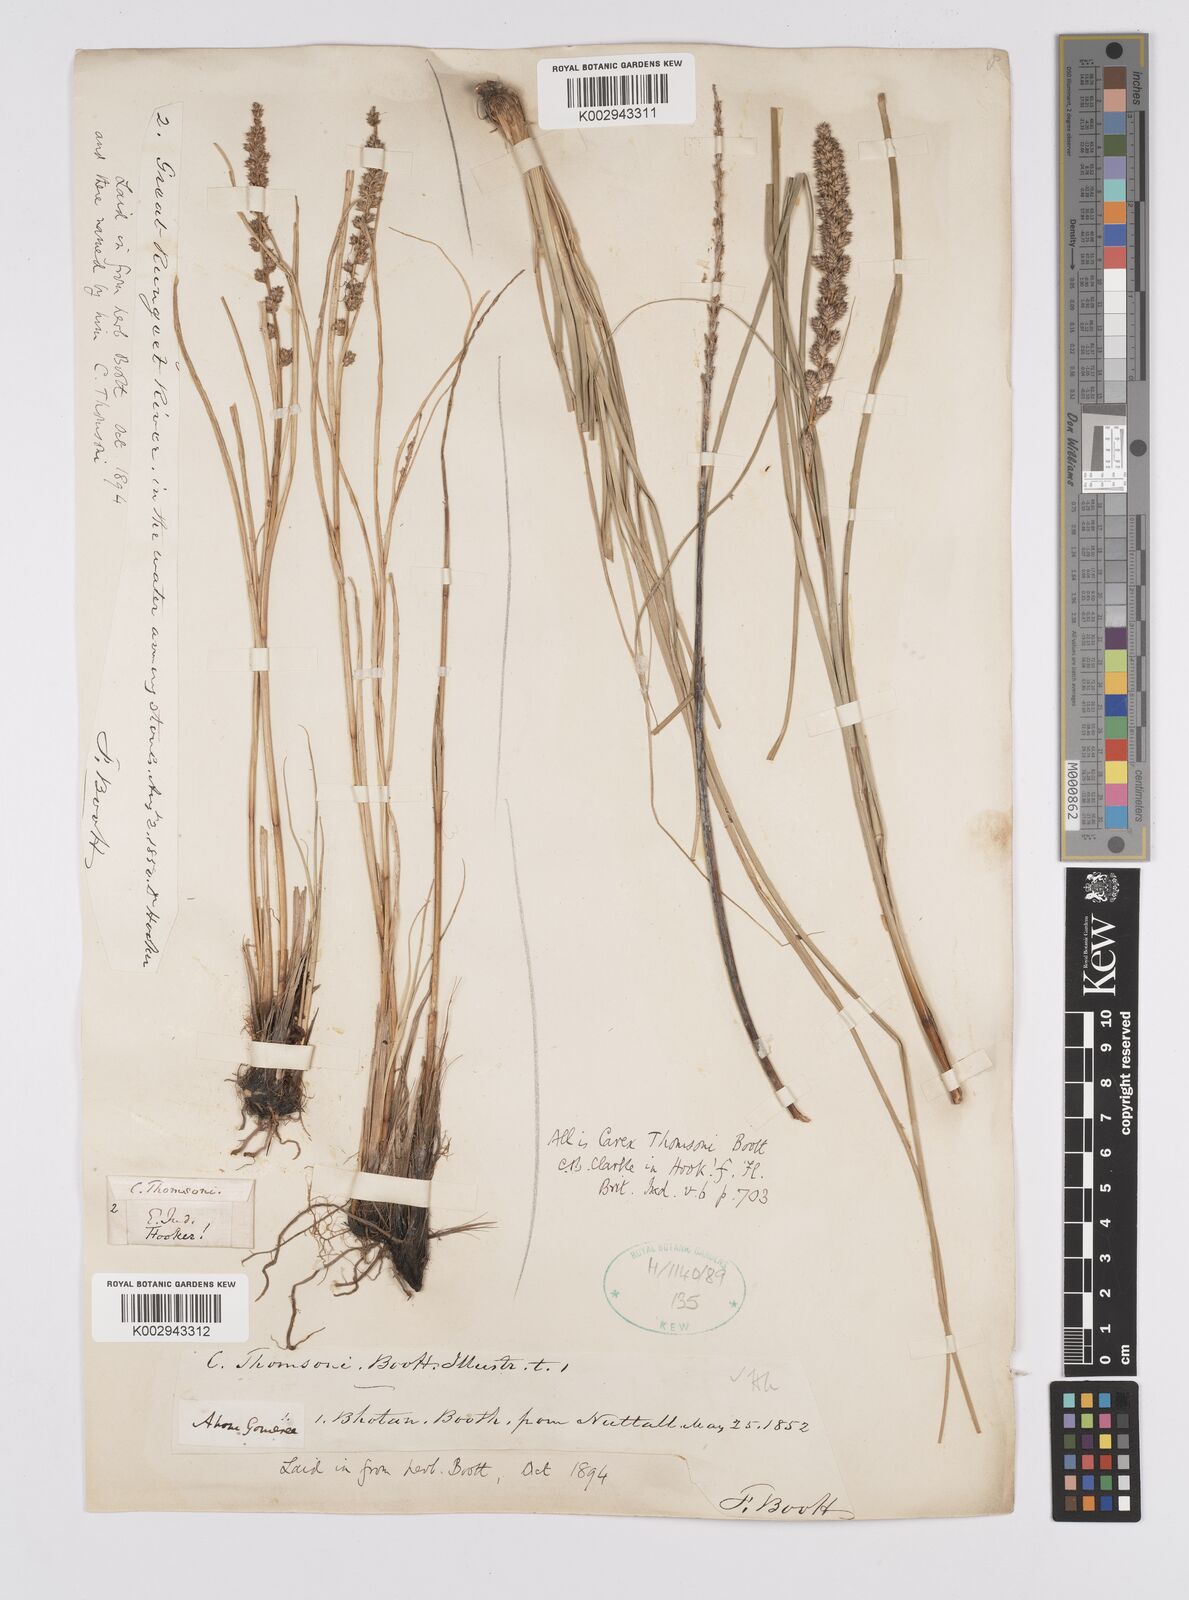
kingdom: Plantae
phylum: Tracheophyta
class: Liliopsida
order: Poales
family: Cyperaceae
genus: Carex
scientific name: Carex thomsonii
